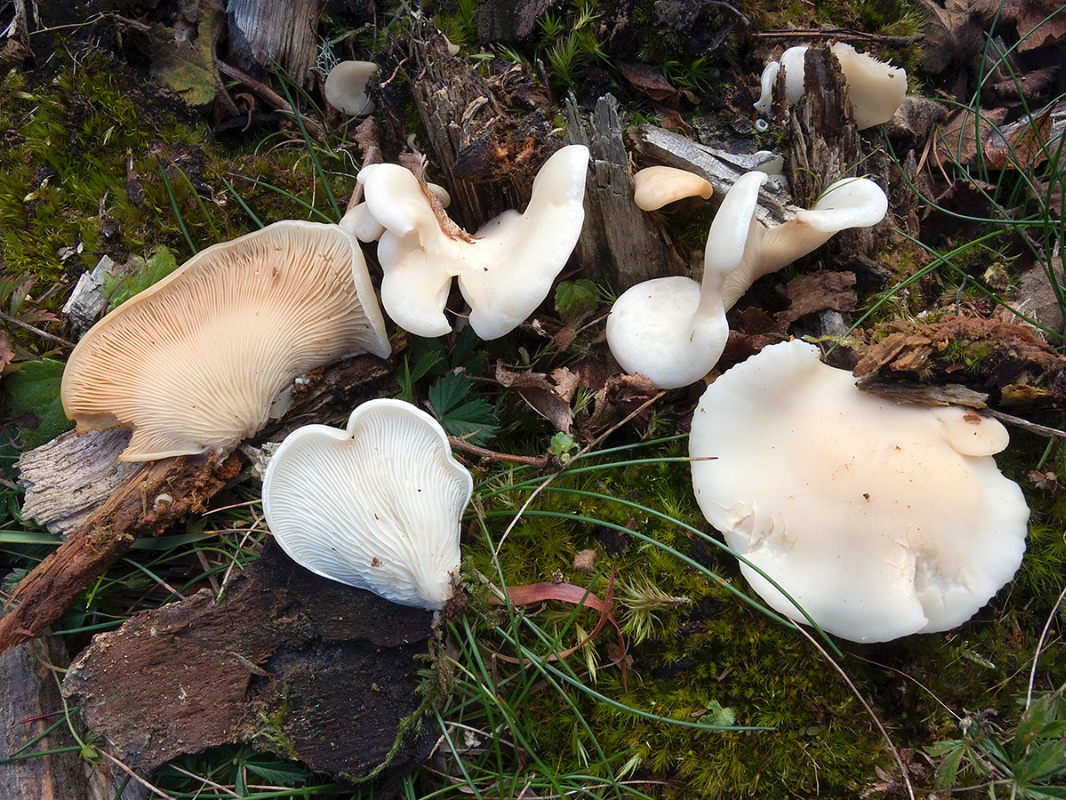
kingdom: Fungi
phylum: Basidiomycota
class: Agaricomycetes
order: Agaricales
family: Marasmiaceae
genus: Pleurocybella
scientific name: Pleurocybella porrigens
